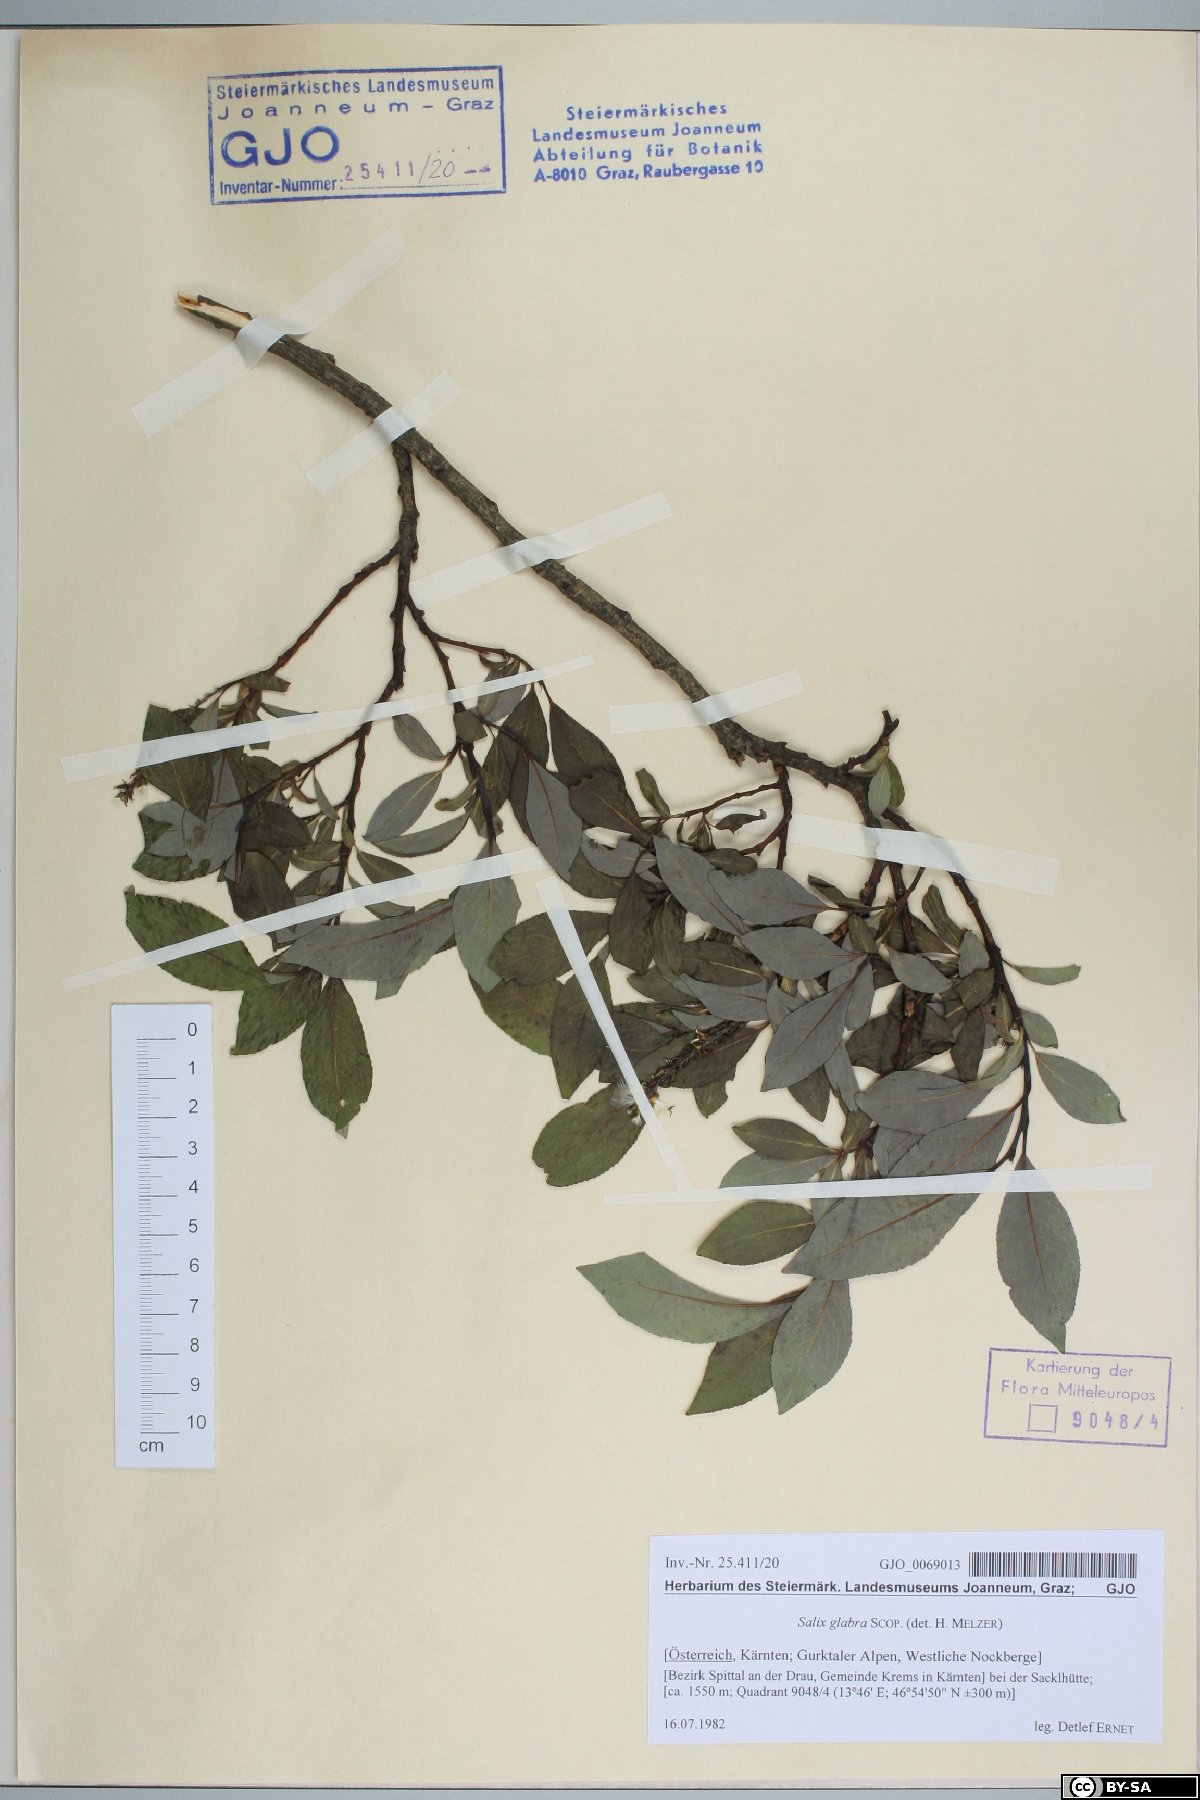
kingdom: Plantae
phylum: Tracheophyta
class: Magnoliopsida
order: Malpighiales
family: Salicaceae
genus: Salix
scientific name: Salix glabra
